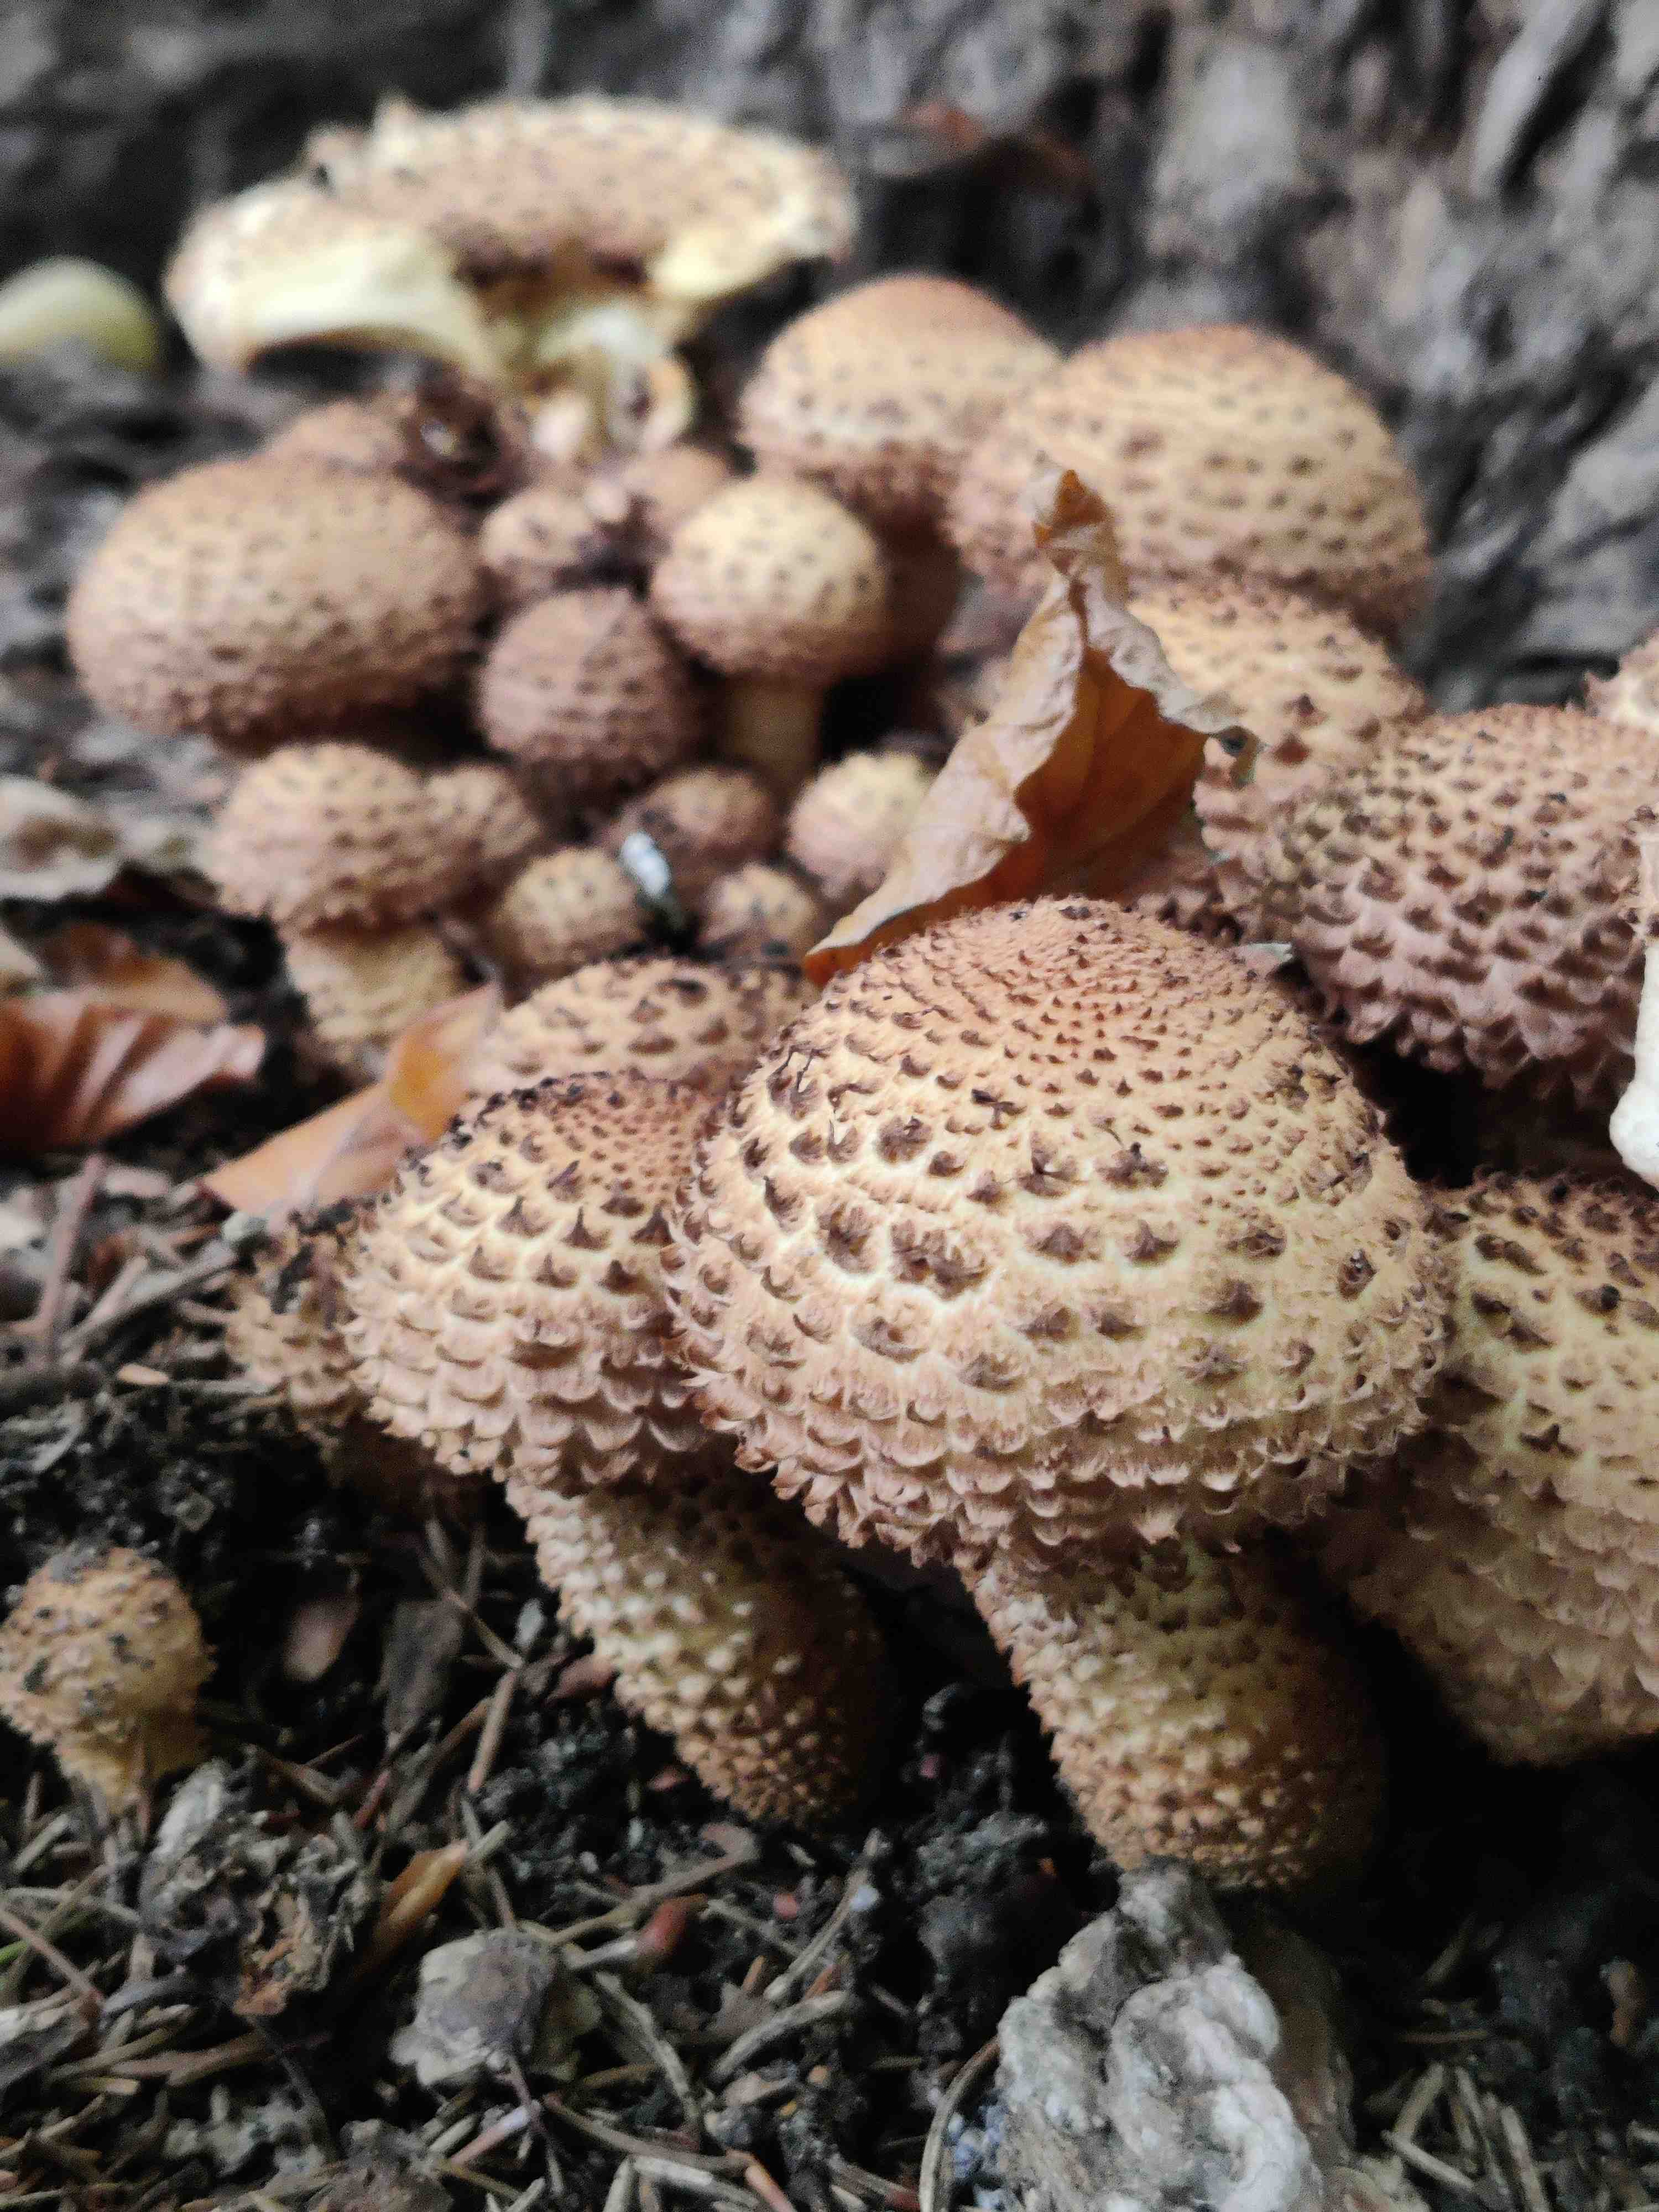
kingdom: Fungi
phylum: Basidiomycota
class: Agaricomycetes
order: Agaricales
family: Strophariaceae
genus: Pholiota
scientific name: Pholiota squarrosa
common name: krumskællet skælhat
